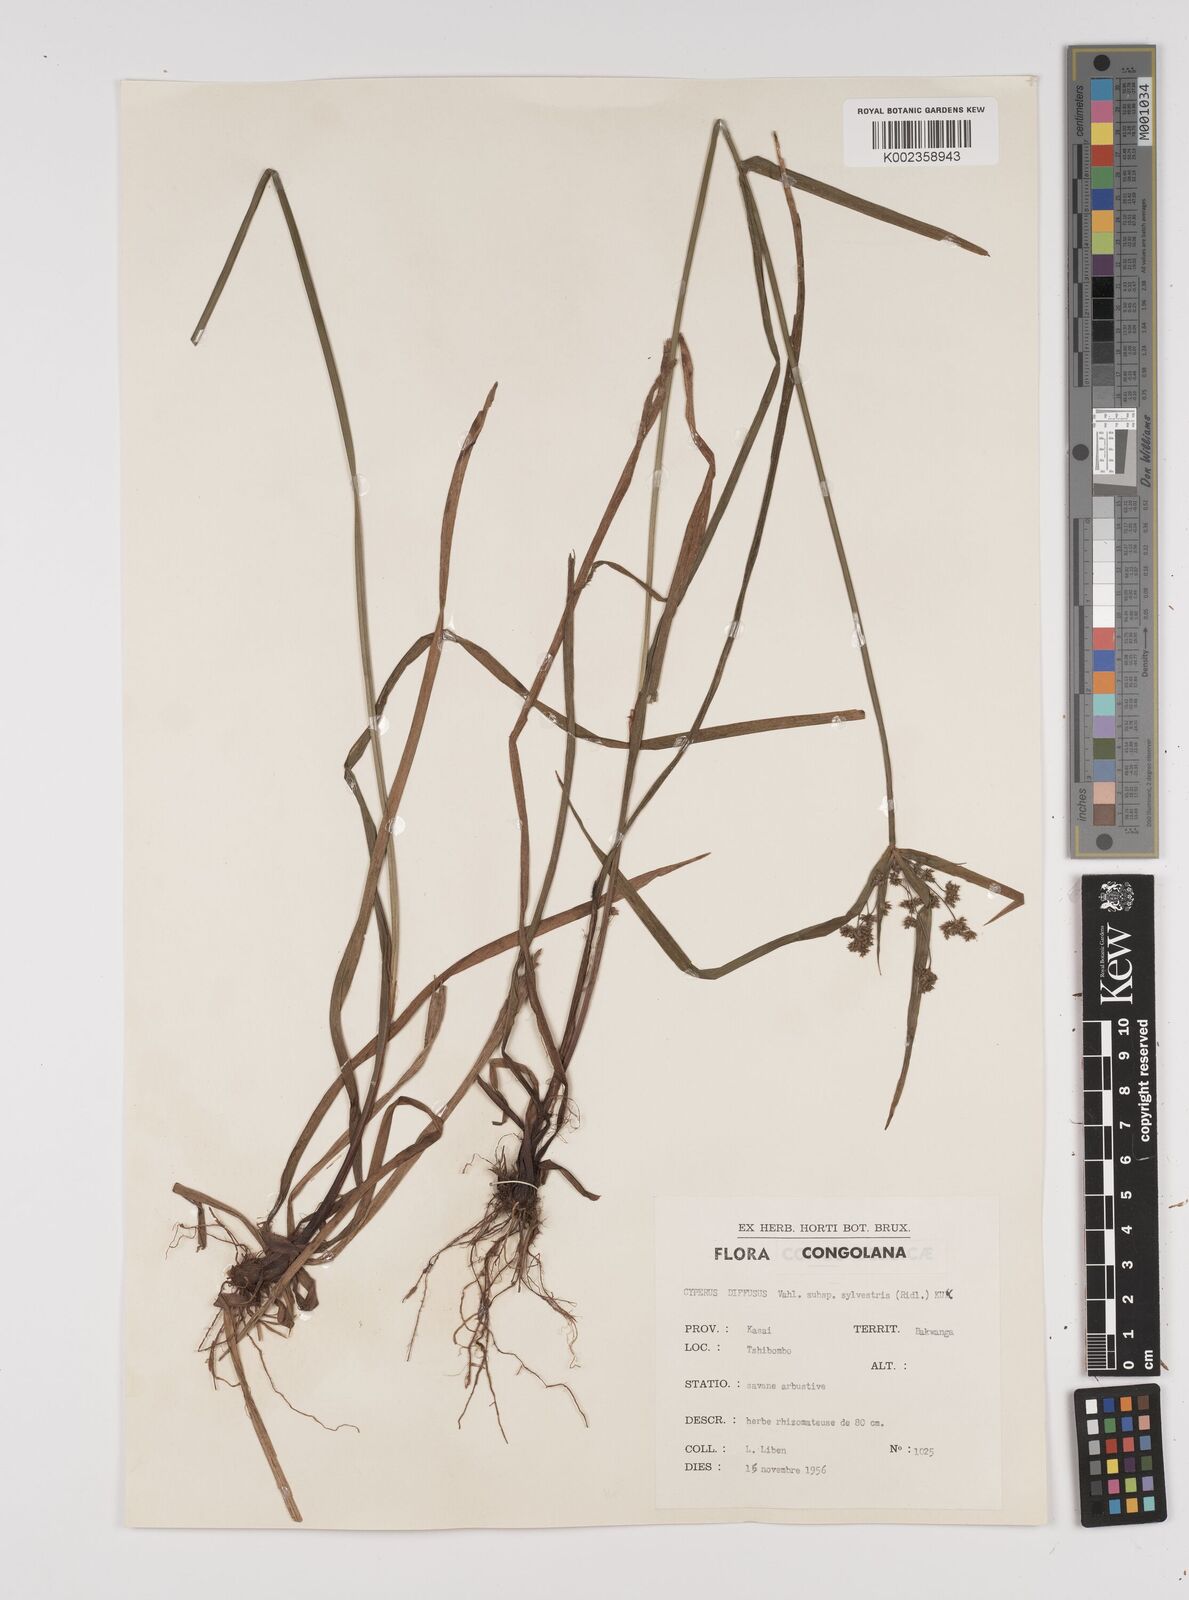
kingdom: Plantae
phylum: Tracheophyta
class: Liliopsida
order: Poales
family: Cyperaceae
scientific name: Cyperaceae
